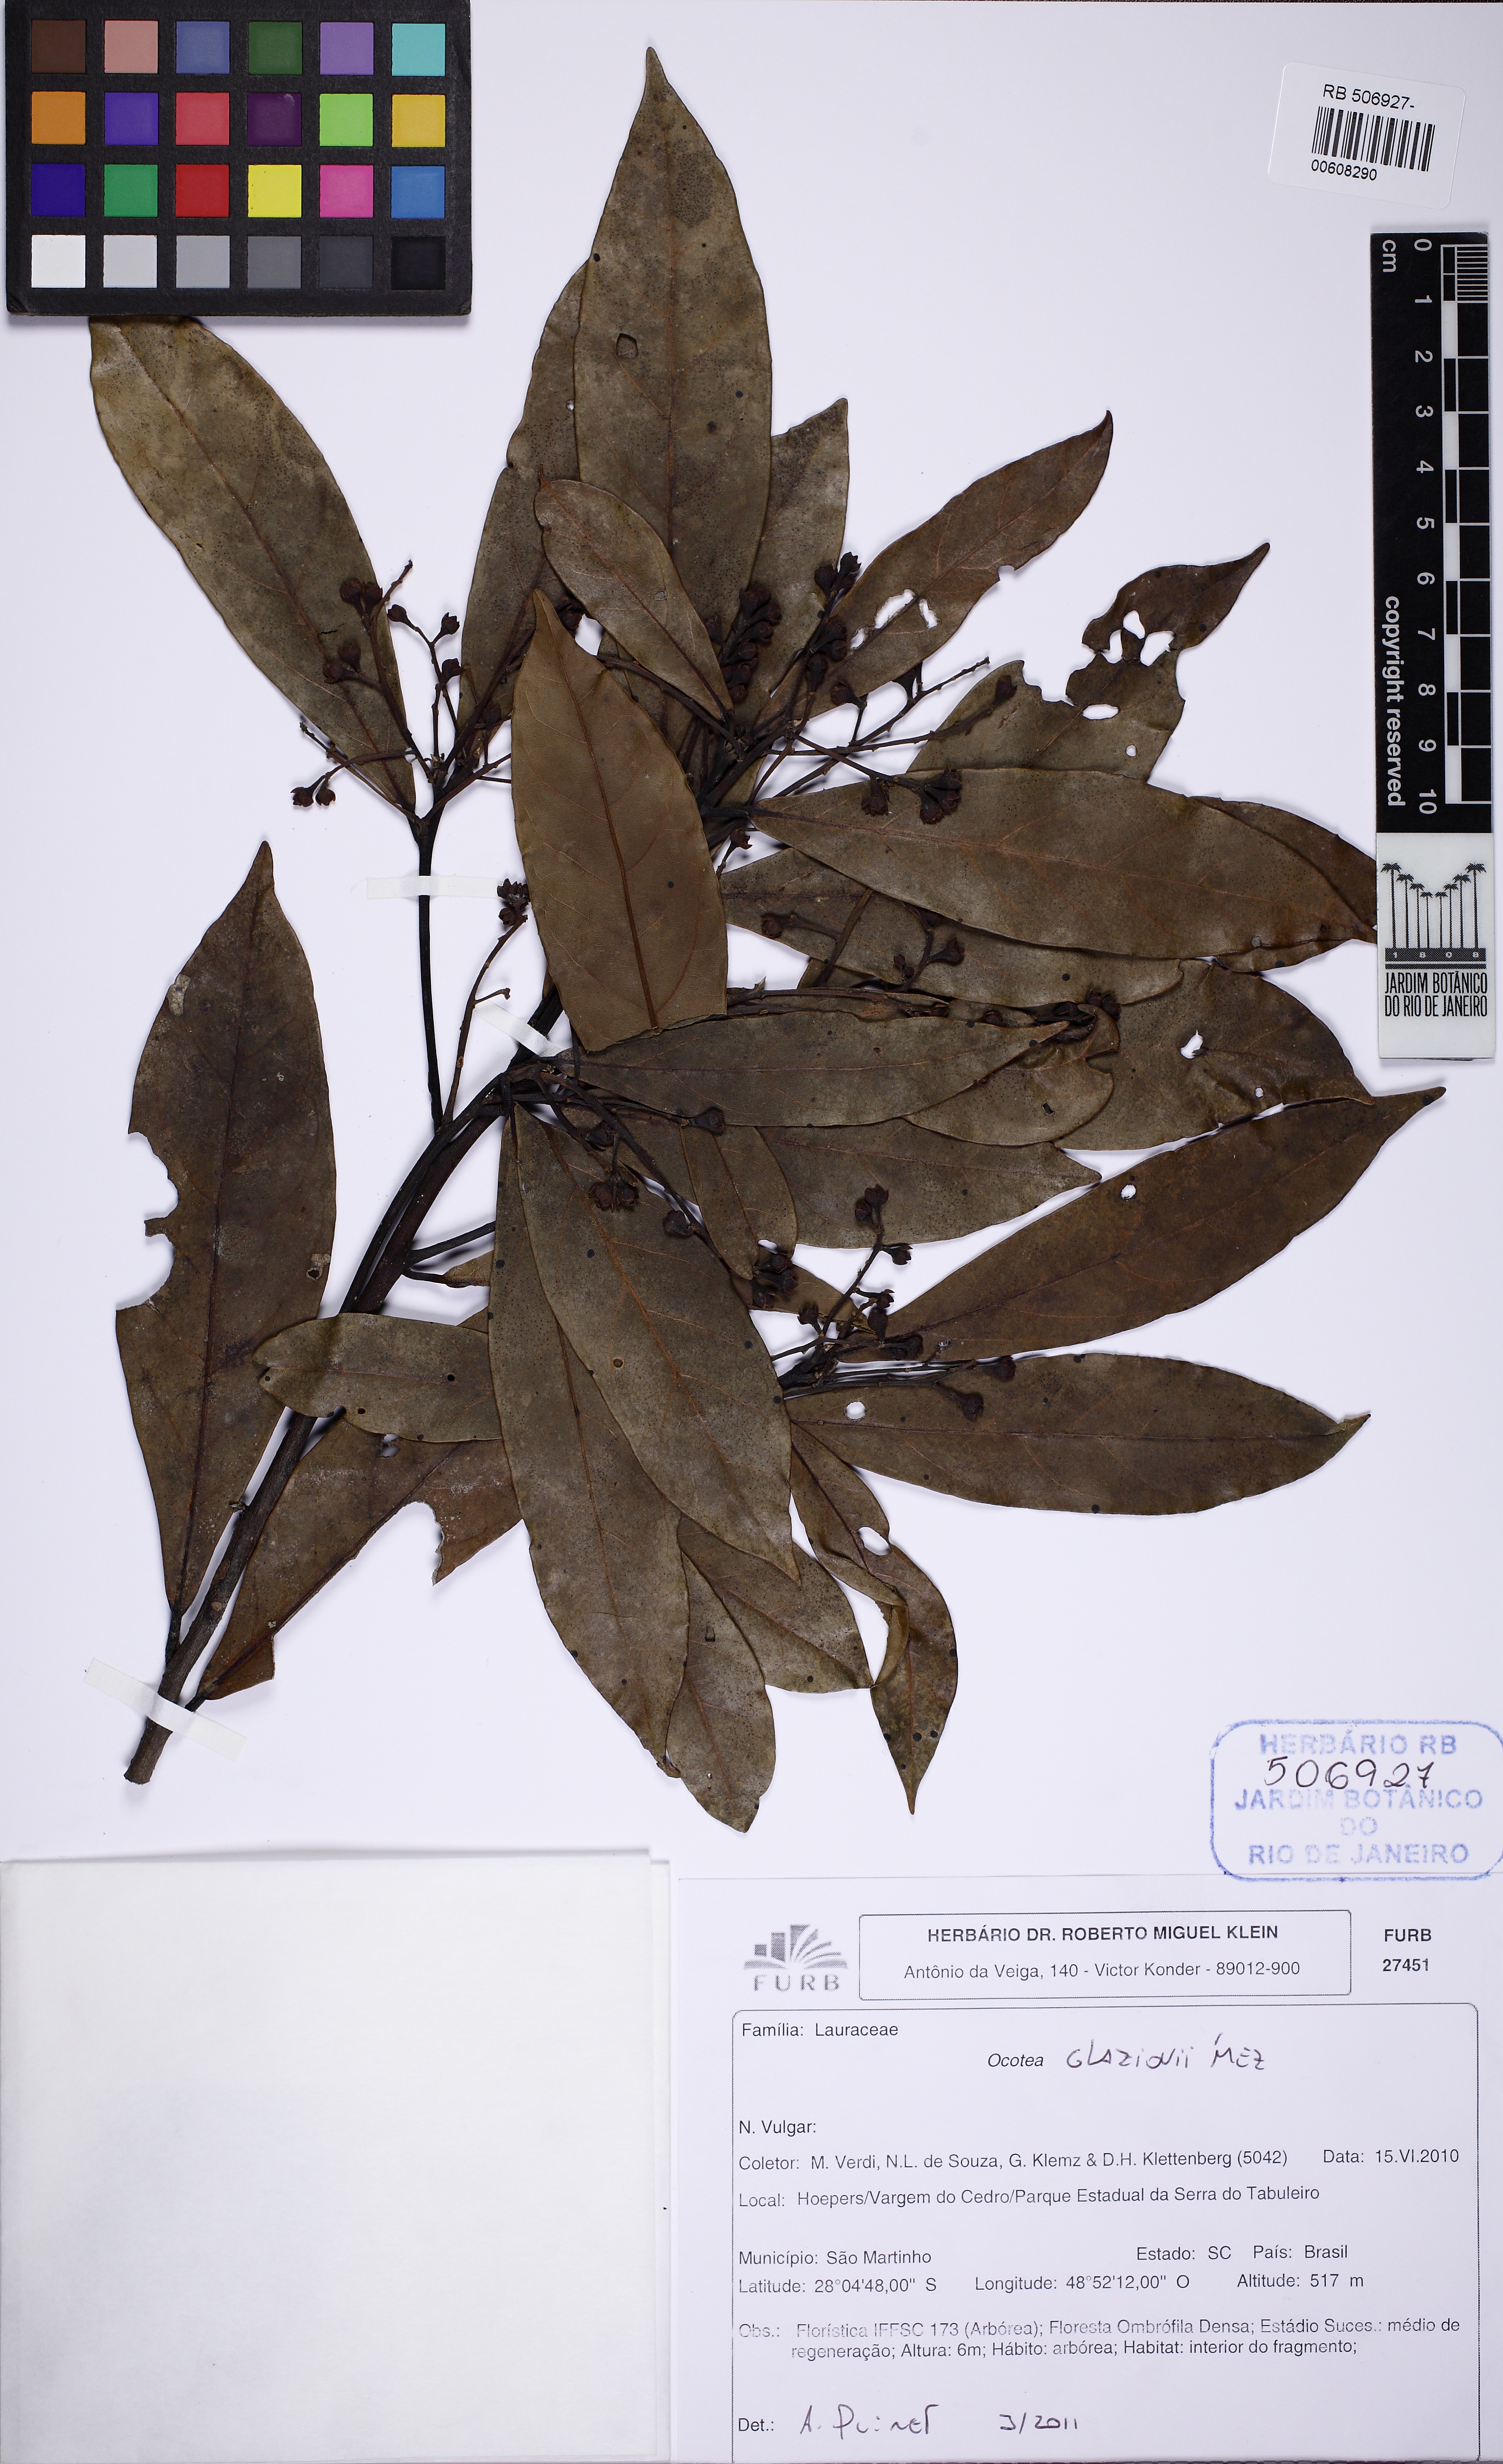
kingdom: Plantae
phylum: Tracheophyta
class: Magnoliopsida
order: Laurales
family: Lauraceae
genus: Ocotea
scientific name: Ocotea glaziovii
